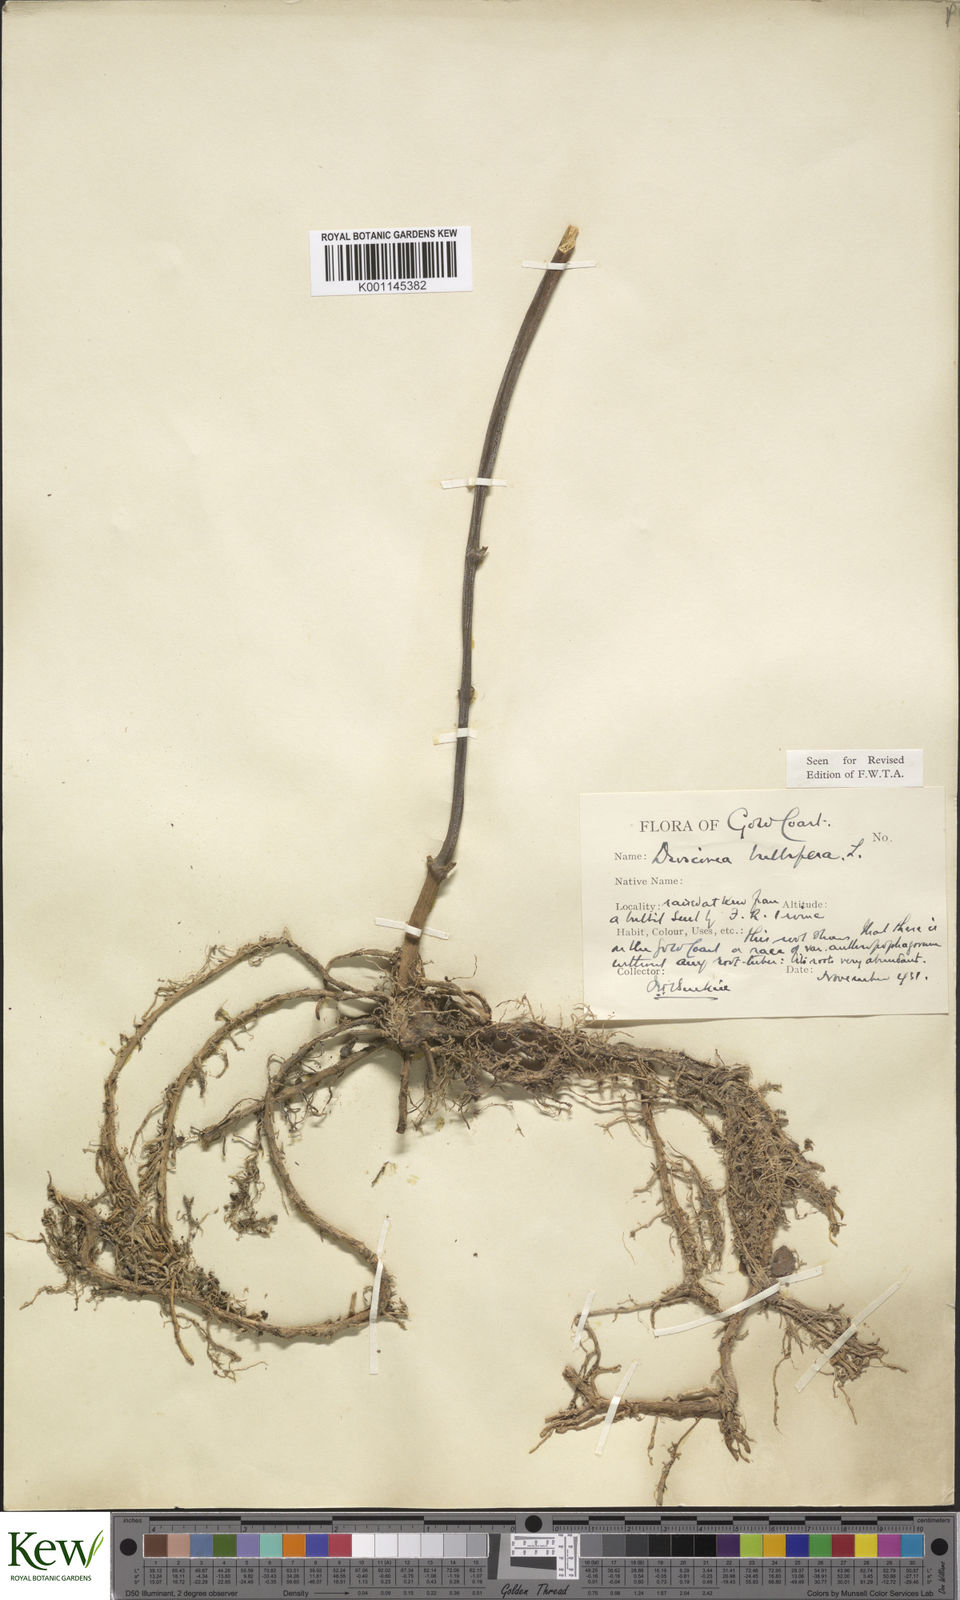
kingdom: Plantae
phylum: Tracheophyta
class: Liliopsida
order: Dioscoreales
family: Dioscoreaceae
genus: Dioscorea
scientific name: Dioscorea bulbifera
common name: Air yam
